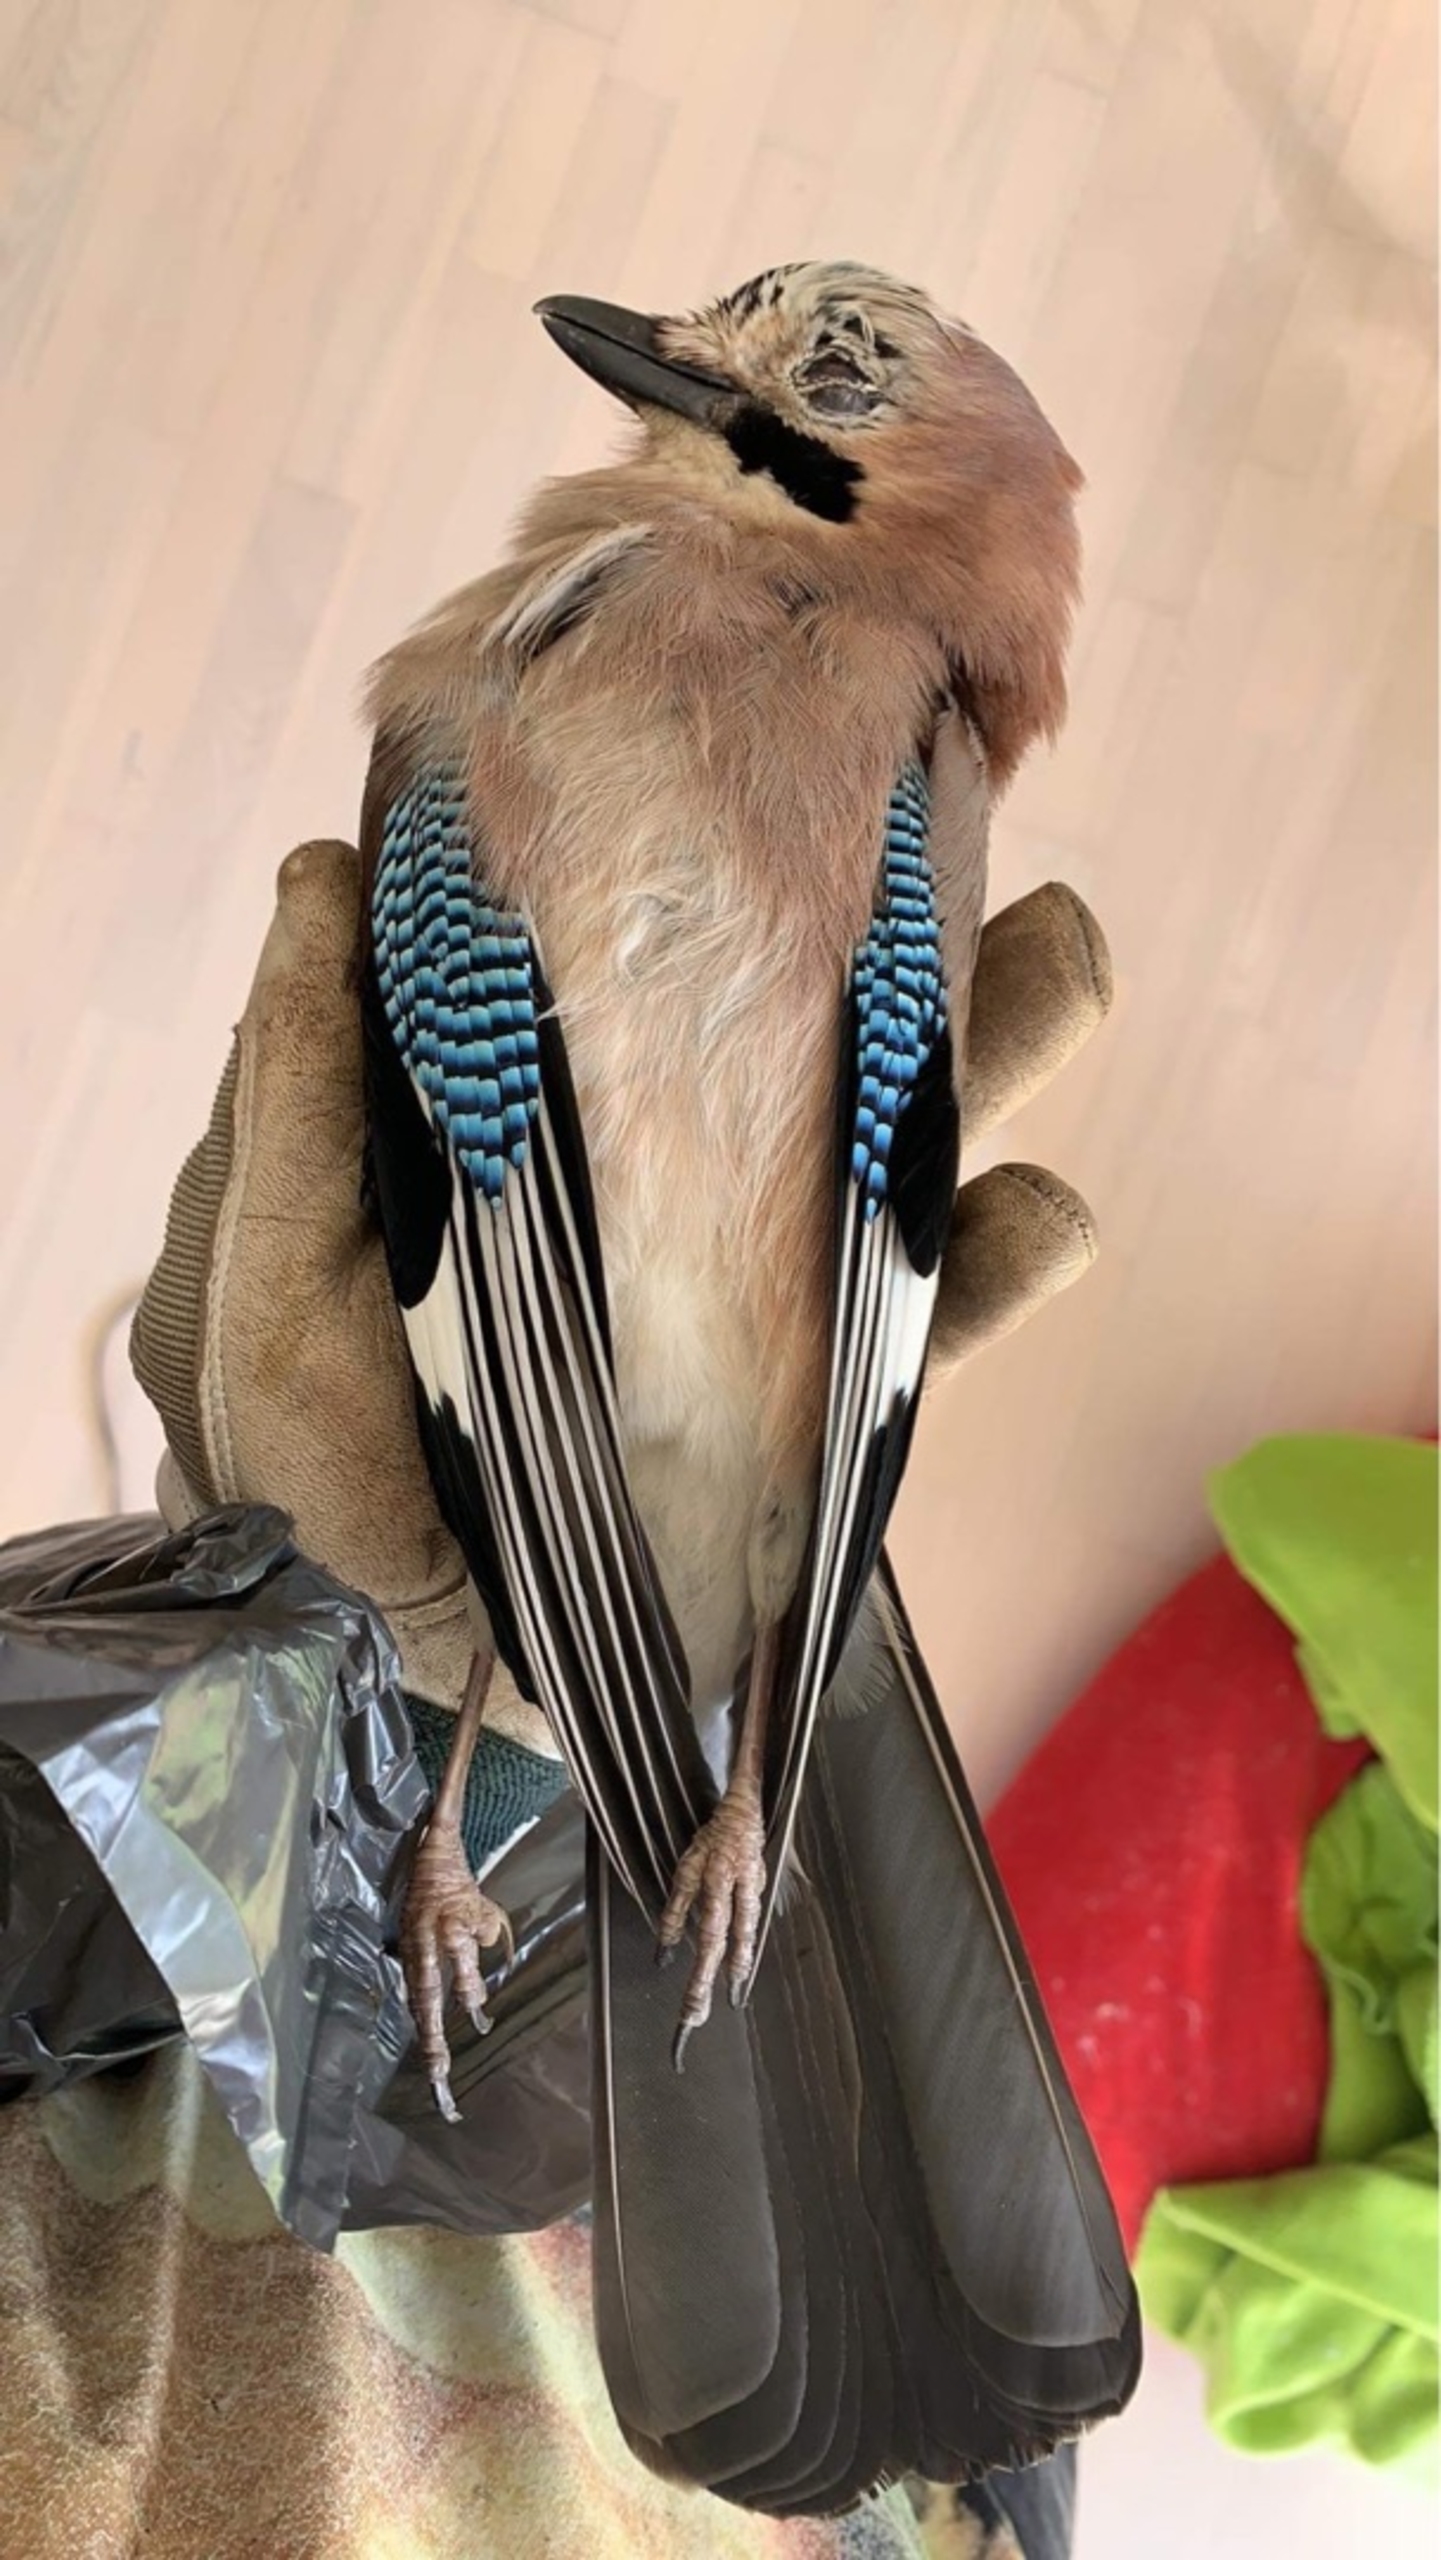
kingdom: Animalia
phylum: Chordata
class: Aves
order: Passeriformes
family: Corvidae
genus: Garrulus
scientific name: Garrulus glandarius
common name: Skovskade
